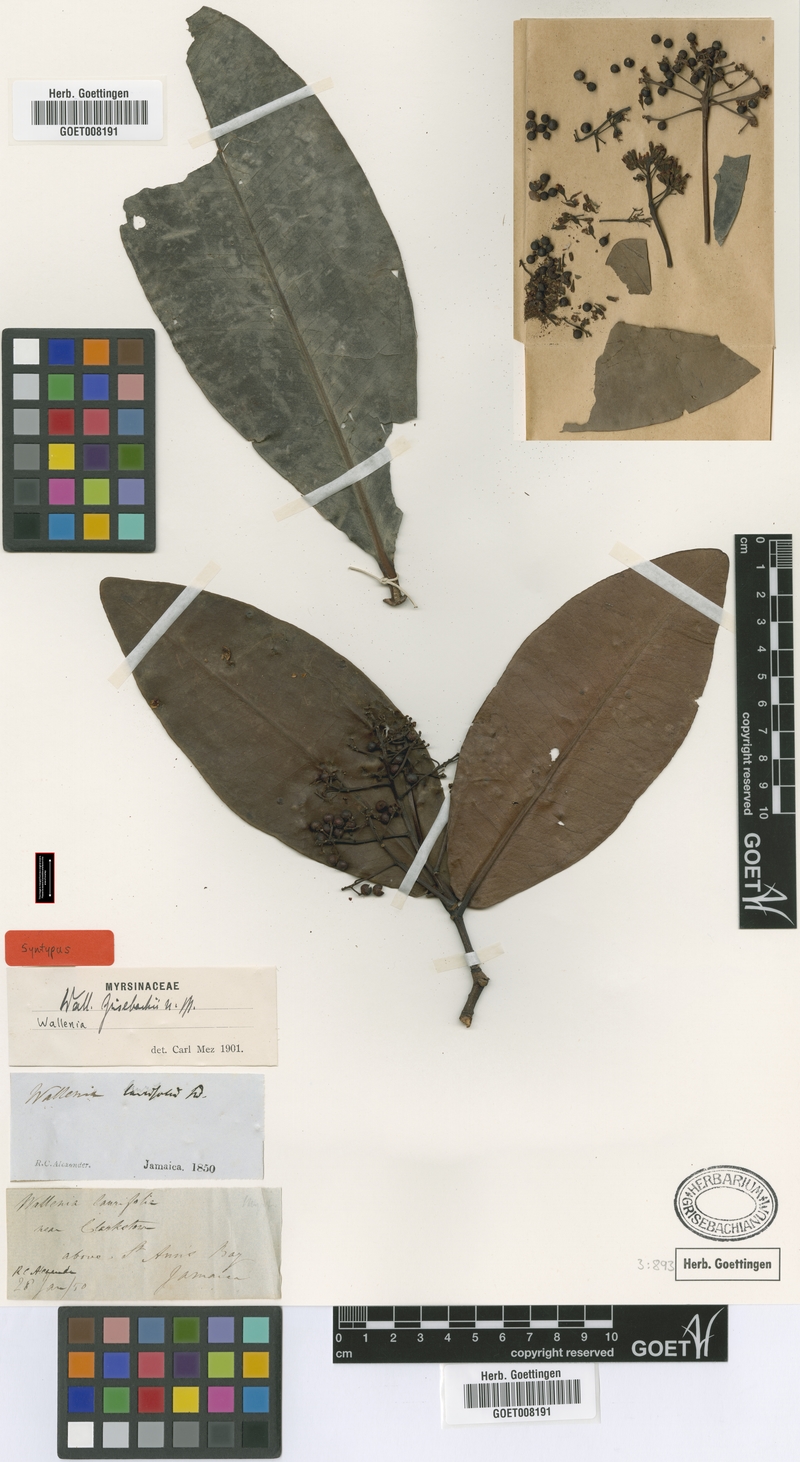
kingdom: Plantae
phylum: Tracheophyta
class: Magnoliopsida
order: Ericales
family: Primulaceae
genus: Wallenia
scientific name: Wallenia elliptica
